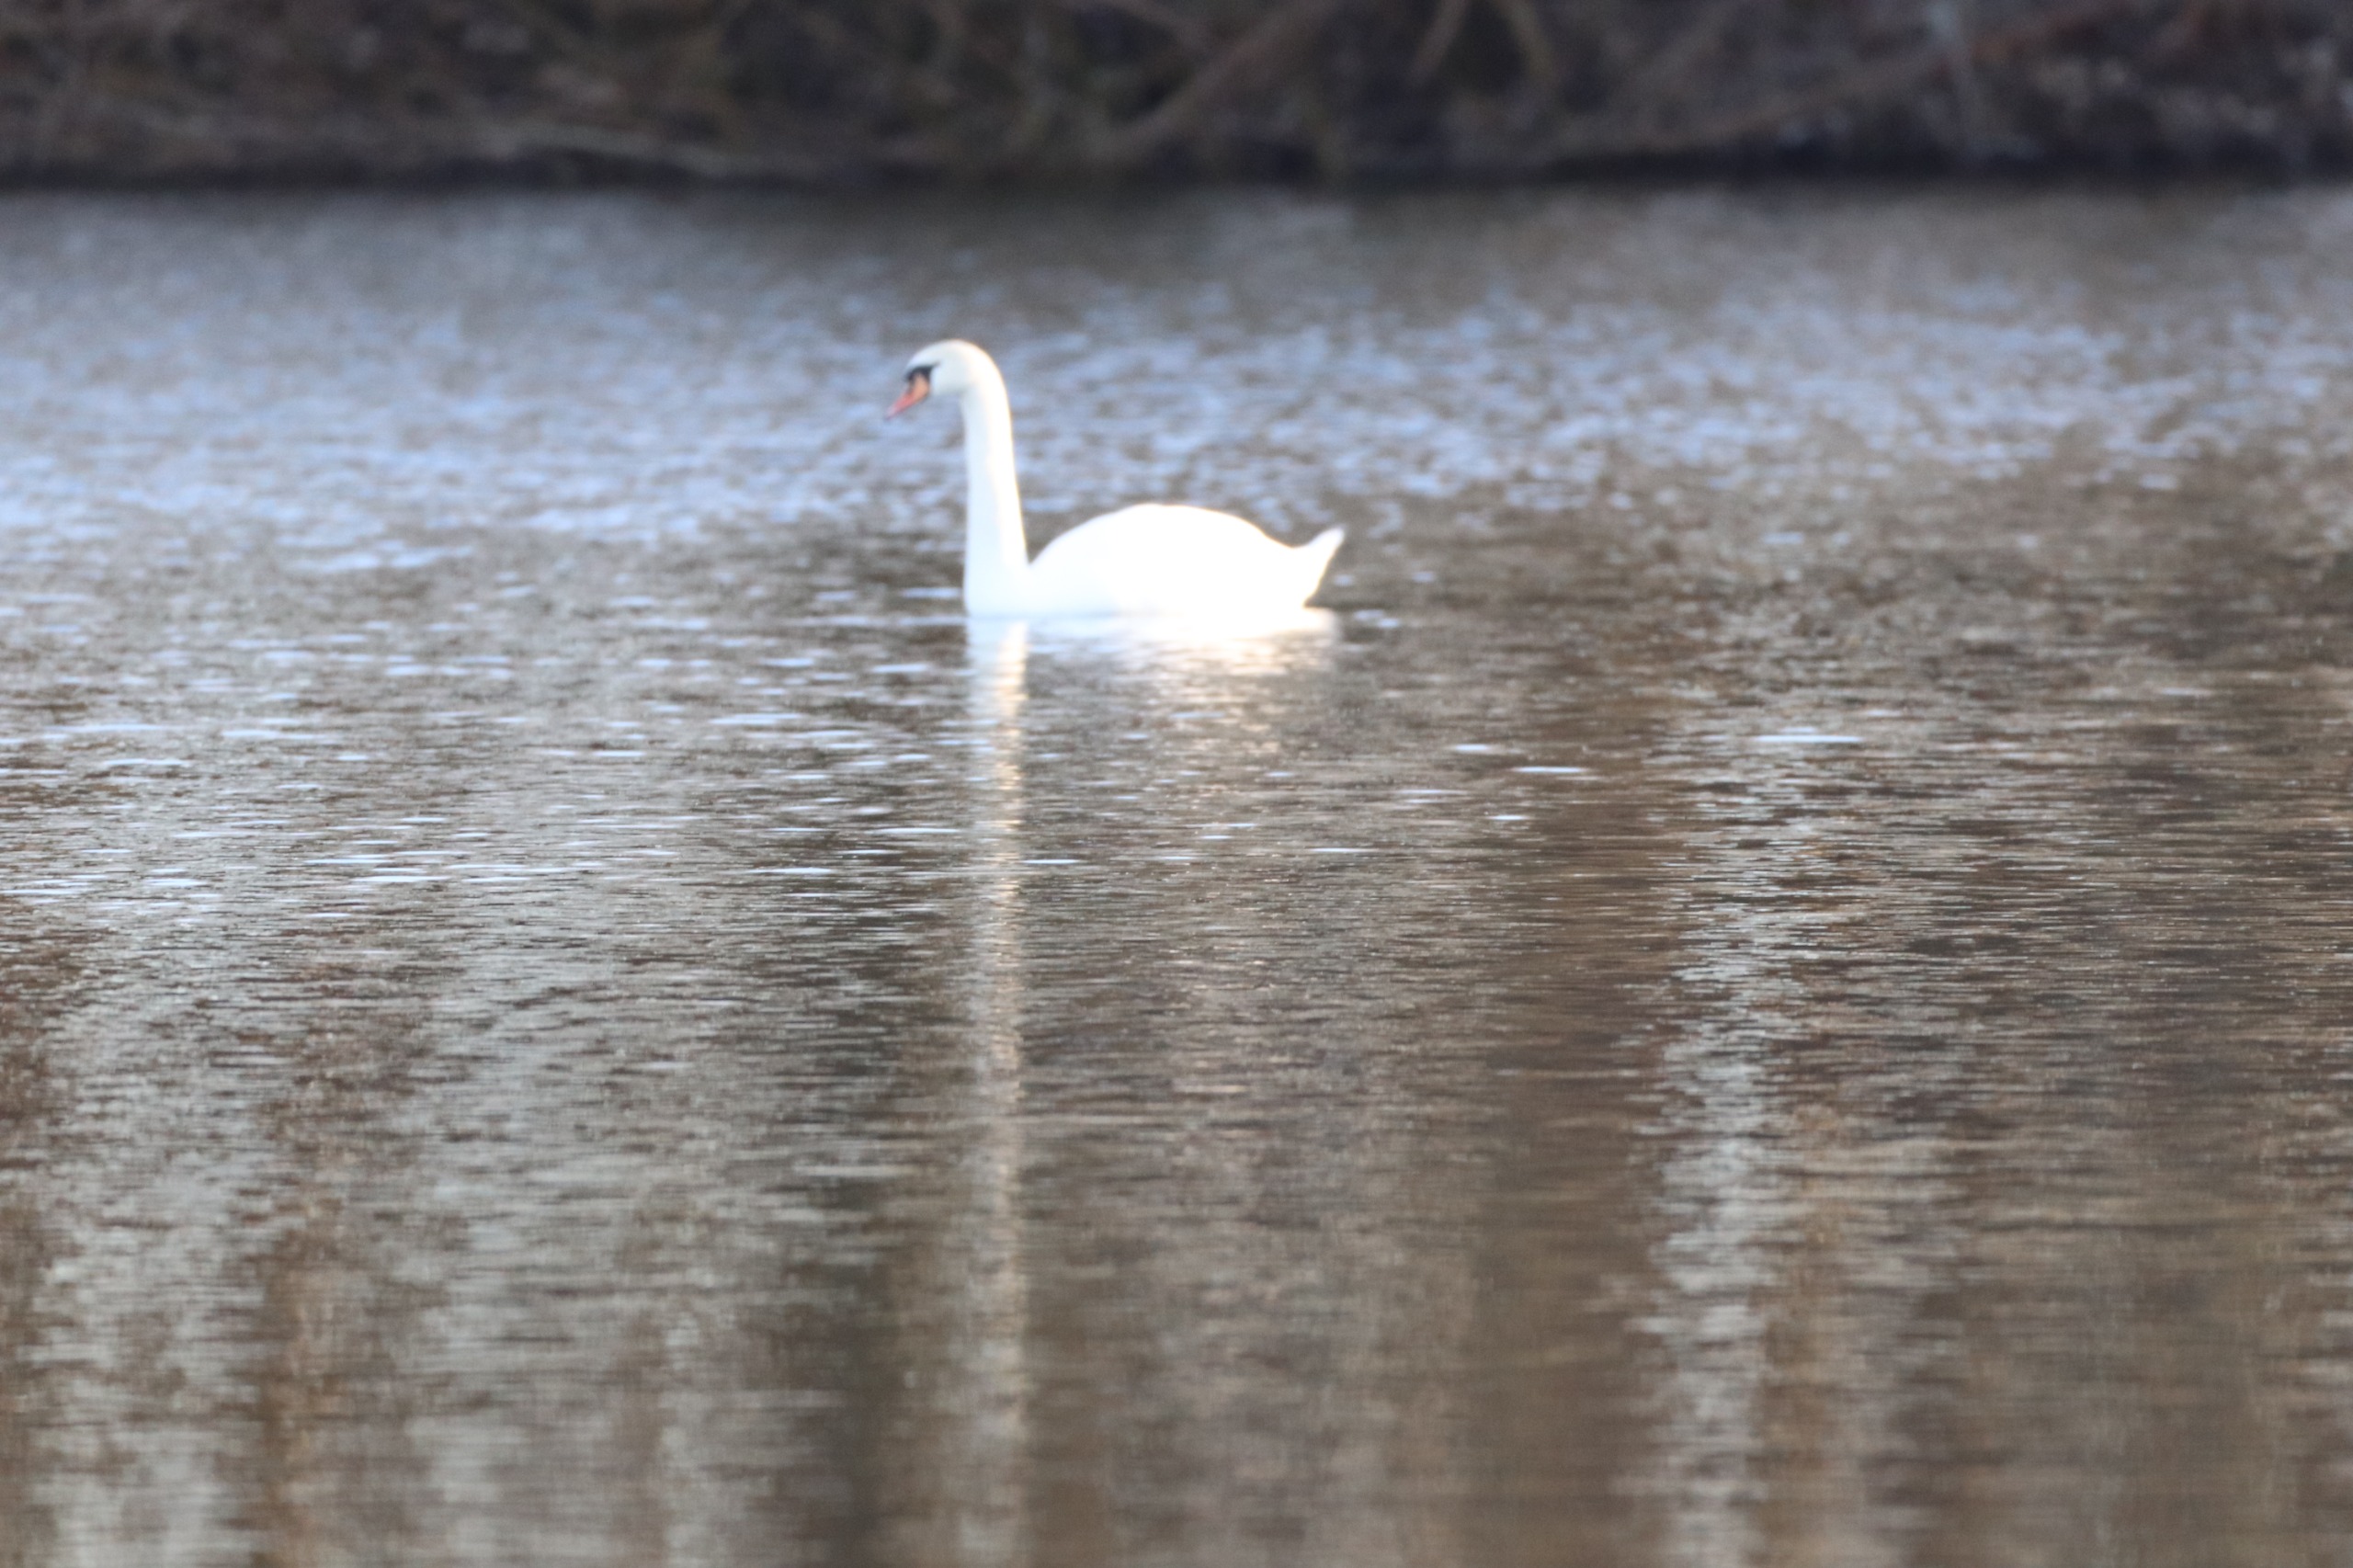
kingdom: Animalia
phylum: Chordata
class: Aves
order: Anseriformes
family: Anatidae
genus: Cygnus
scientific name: Cygnus olor
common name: Knopsvane
